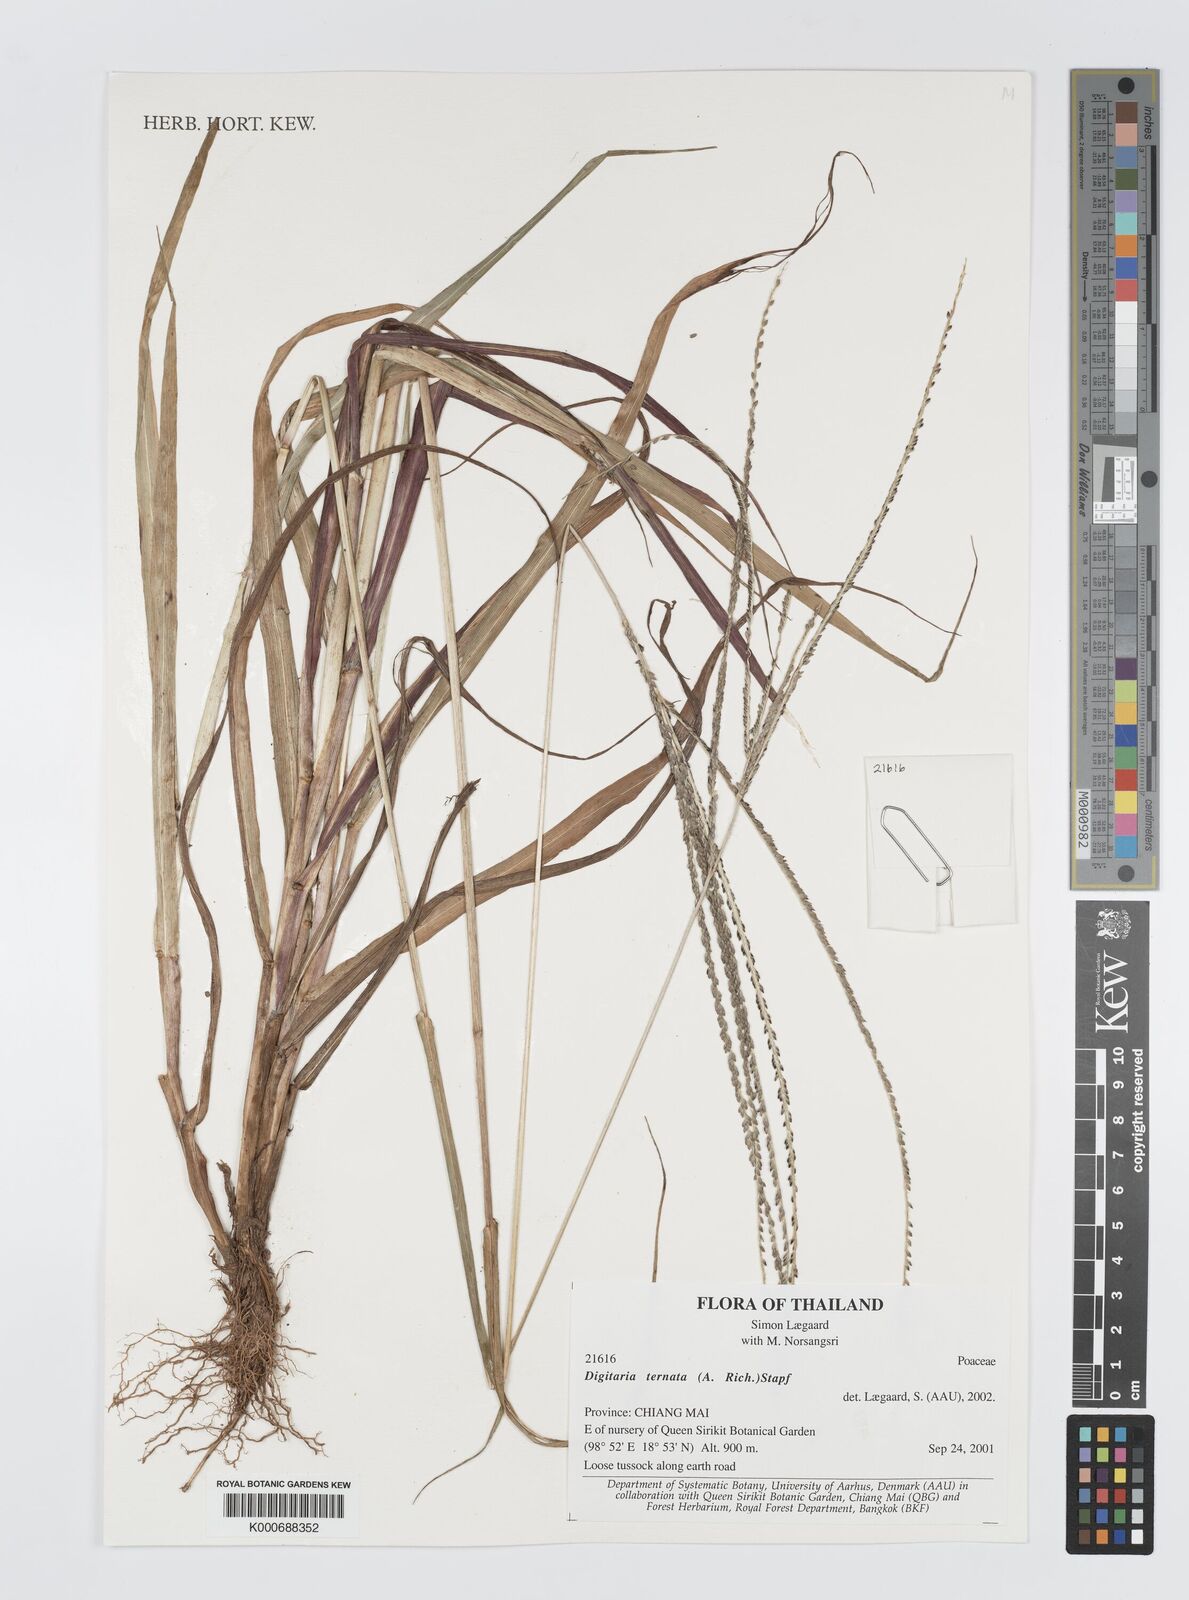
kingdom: Plantae
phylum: Tracheophyta
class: Liliopsida
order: Poales
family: Poaceae
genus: Digitaria
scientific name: Digitaria ternata
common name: Blackseed crabgrass
